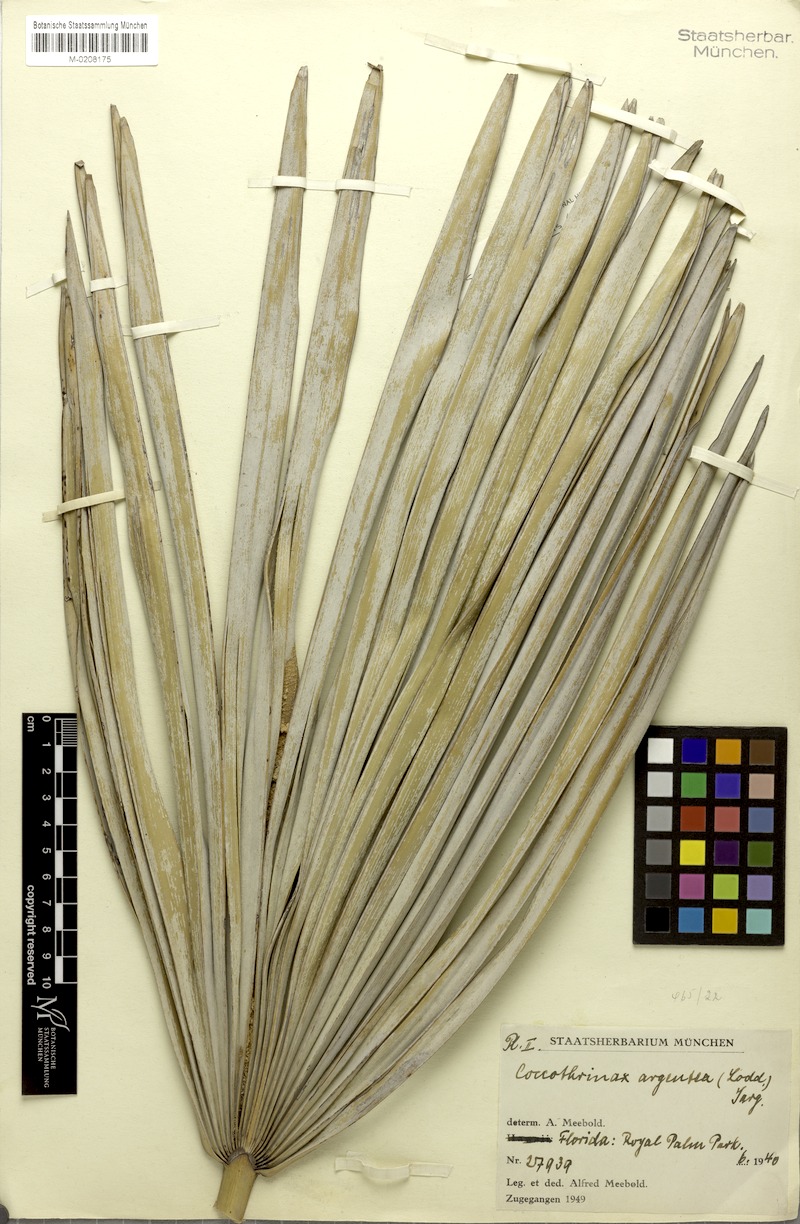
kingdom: Plantae
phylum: Tracheophyta
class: Liliopsida
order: Arecales
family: Arecaceae
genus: Coccothrinax
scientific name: Coccothrinax argentata
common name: Florida silver palm
